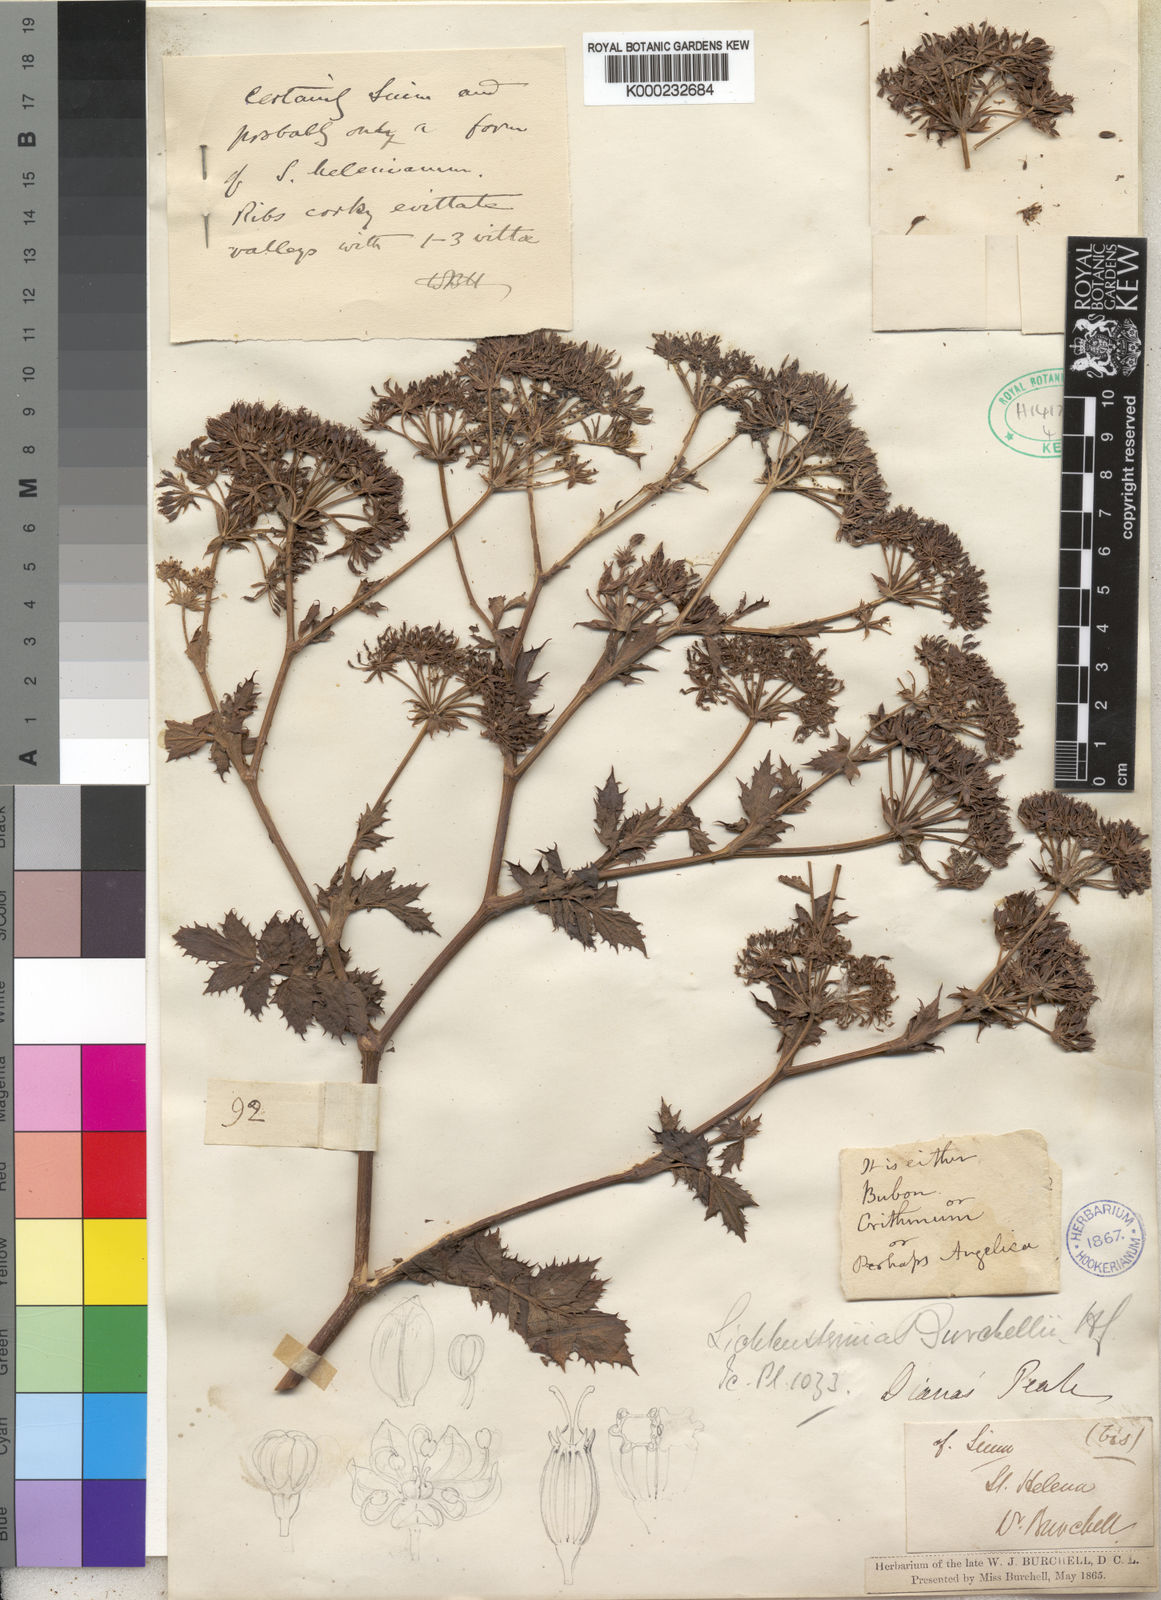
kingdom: Plantae
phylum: Tracheophyta
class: Magnoliopsida
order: Apiales
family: Apiaceae
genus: Berula
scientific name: Berula burchellii
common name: Dwarf jellico
